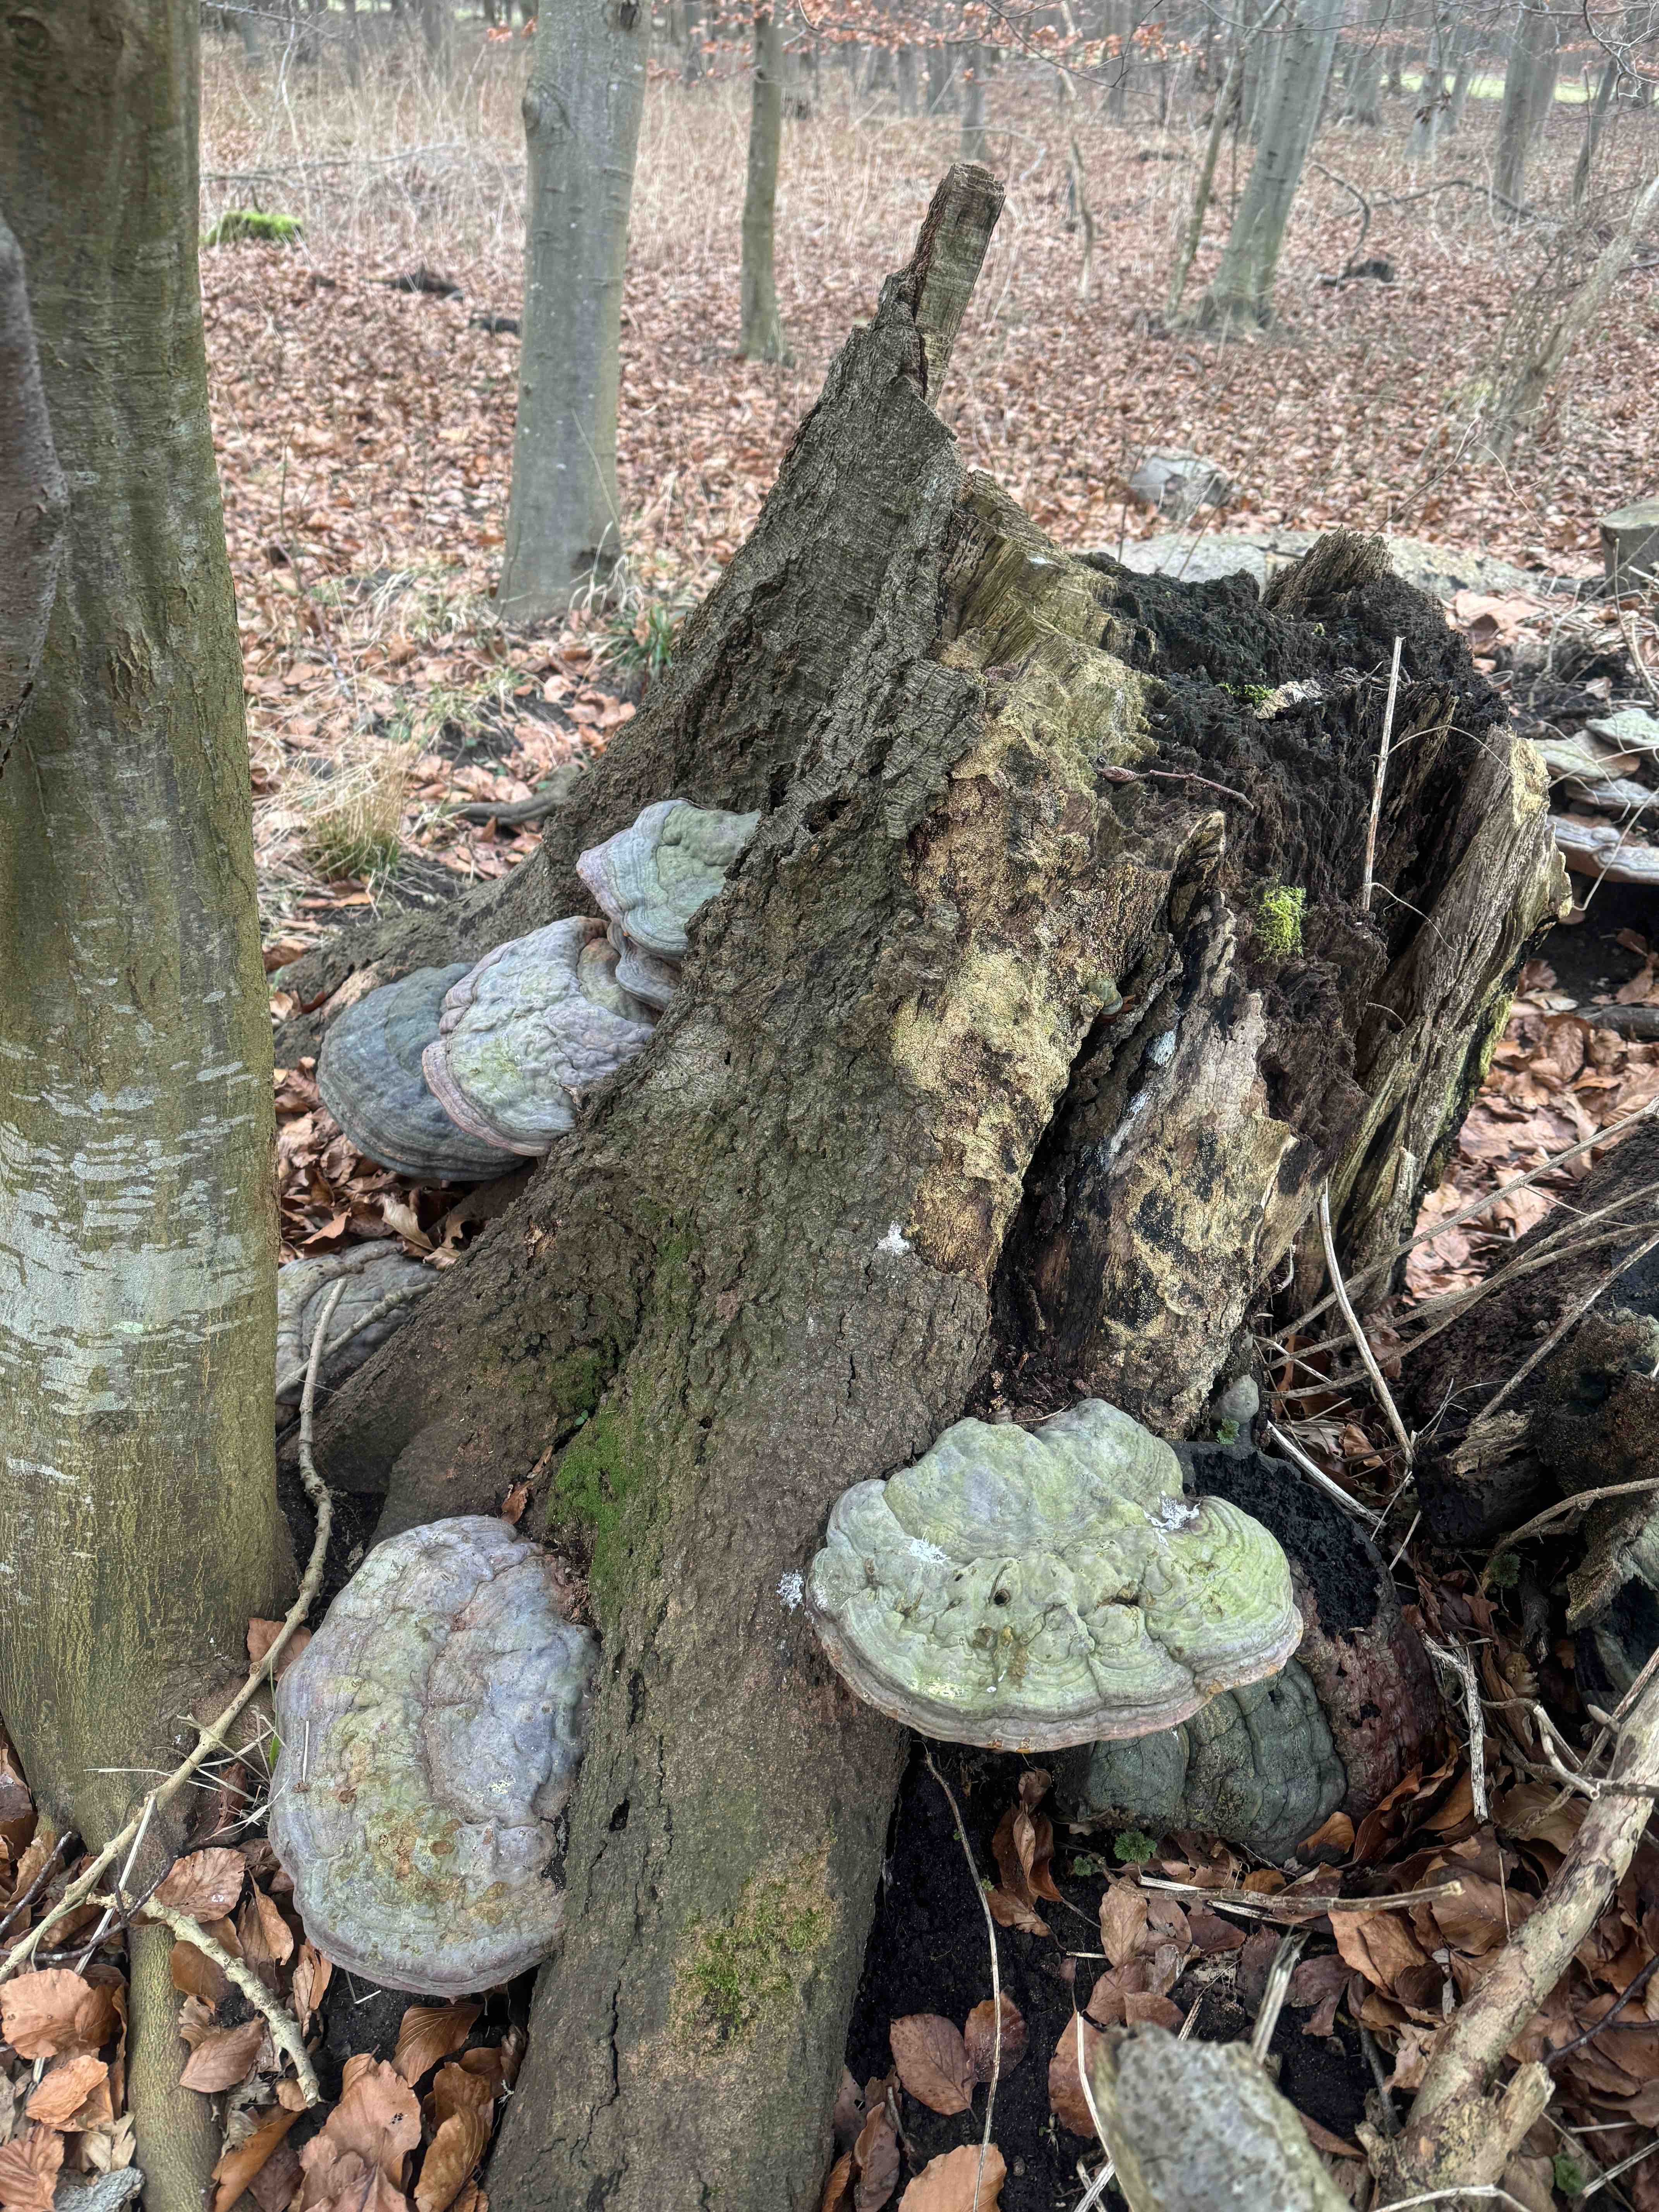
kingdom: Fungi
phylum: Basidiomycota
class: Agaricomycetes
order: Polyporales
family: Polyporaceae
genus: Ganoderma
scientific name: Ganoderma pfeifferi
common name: kobberrød lakporesvamp
